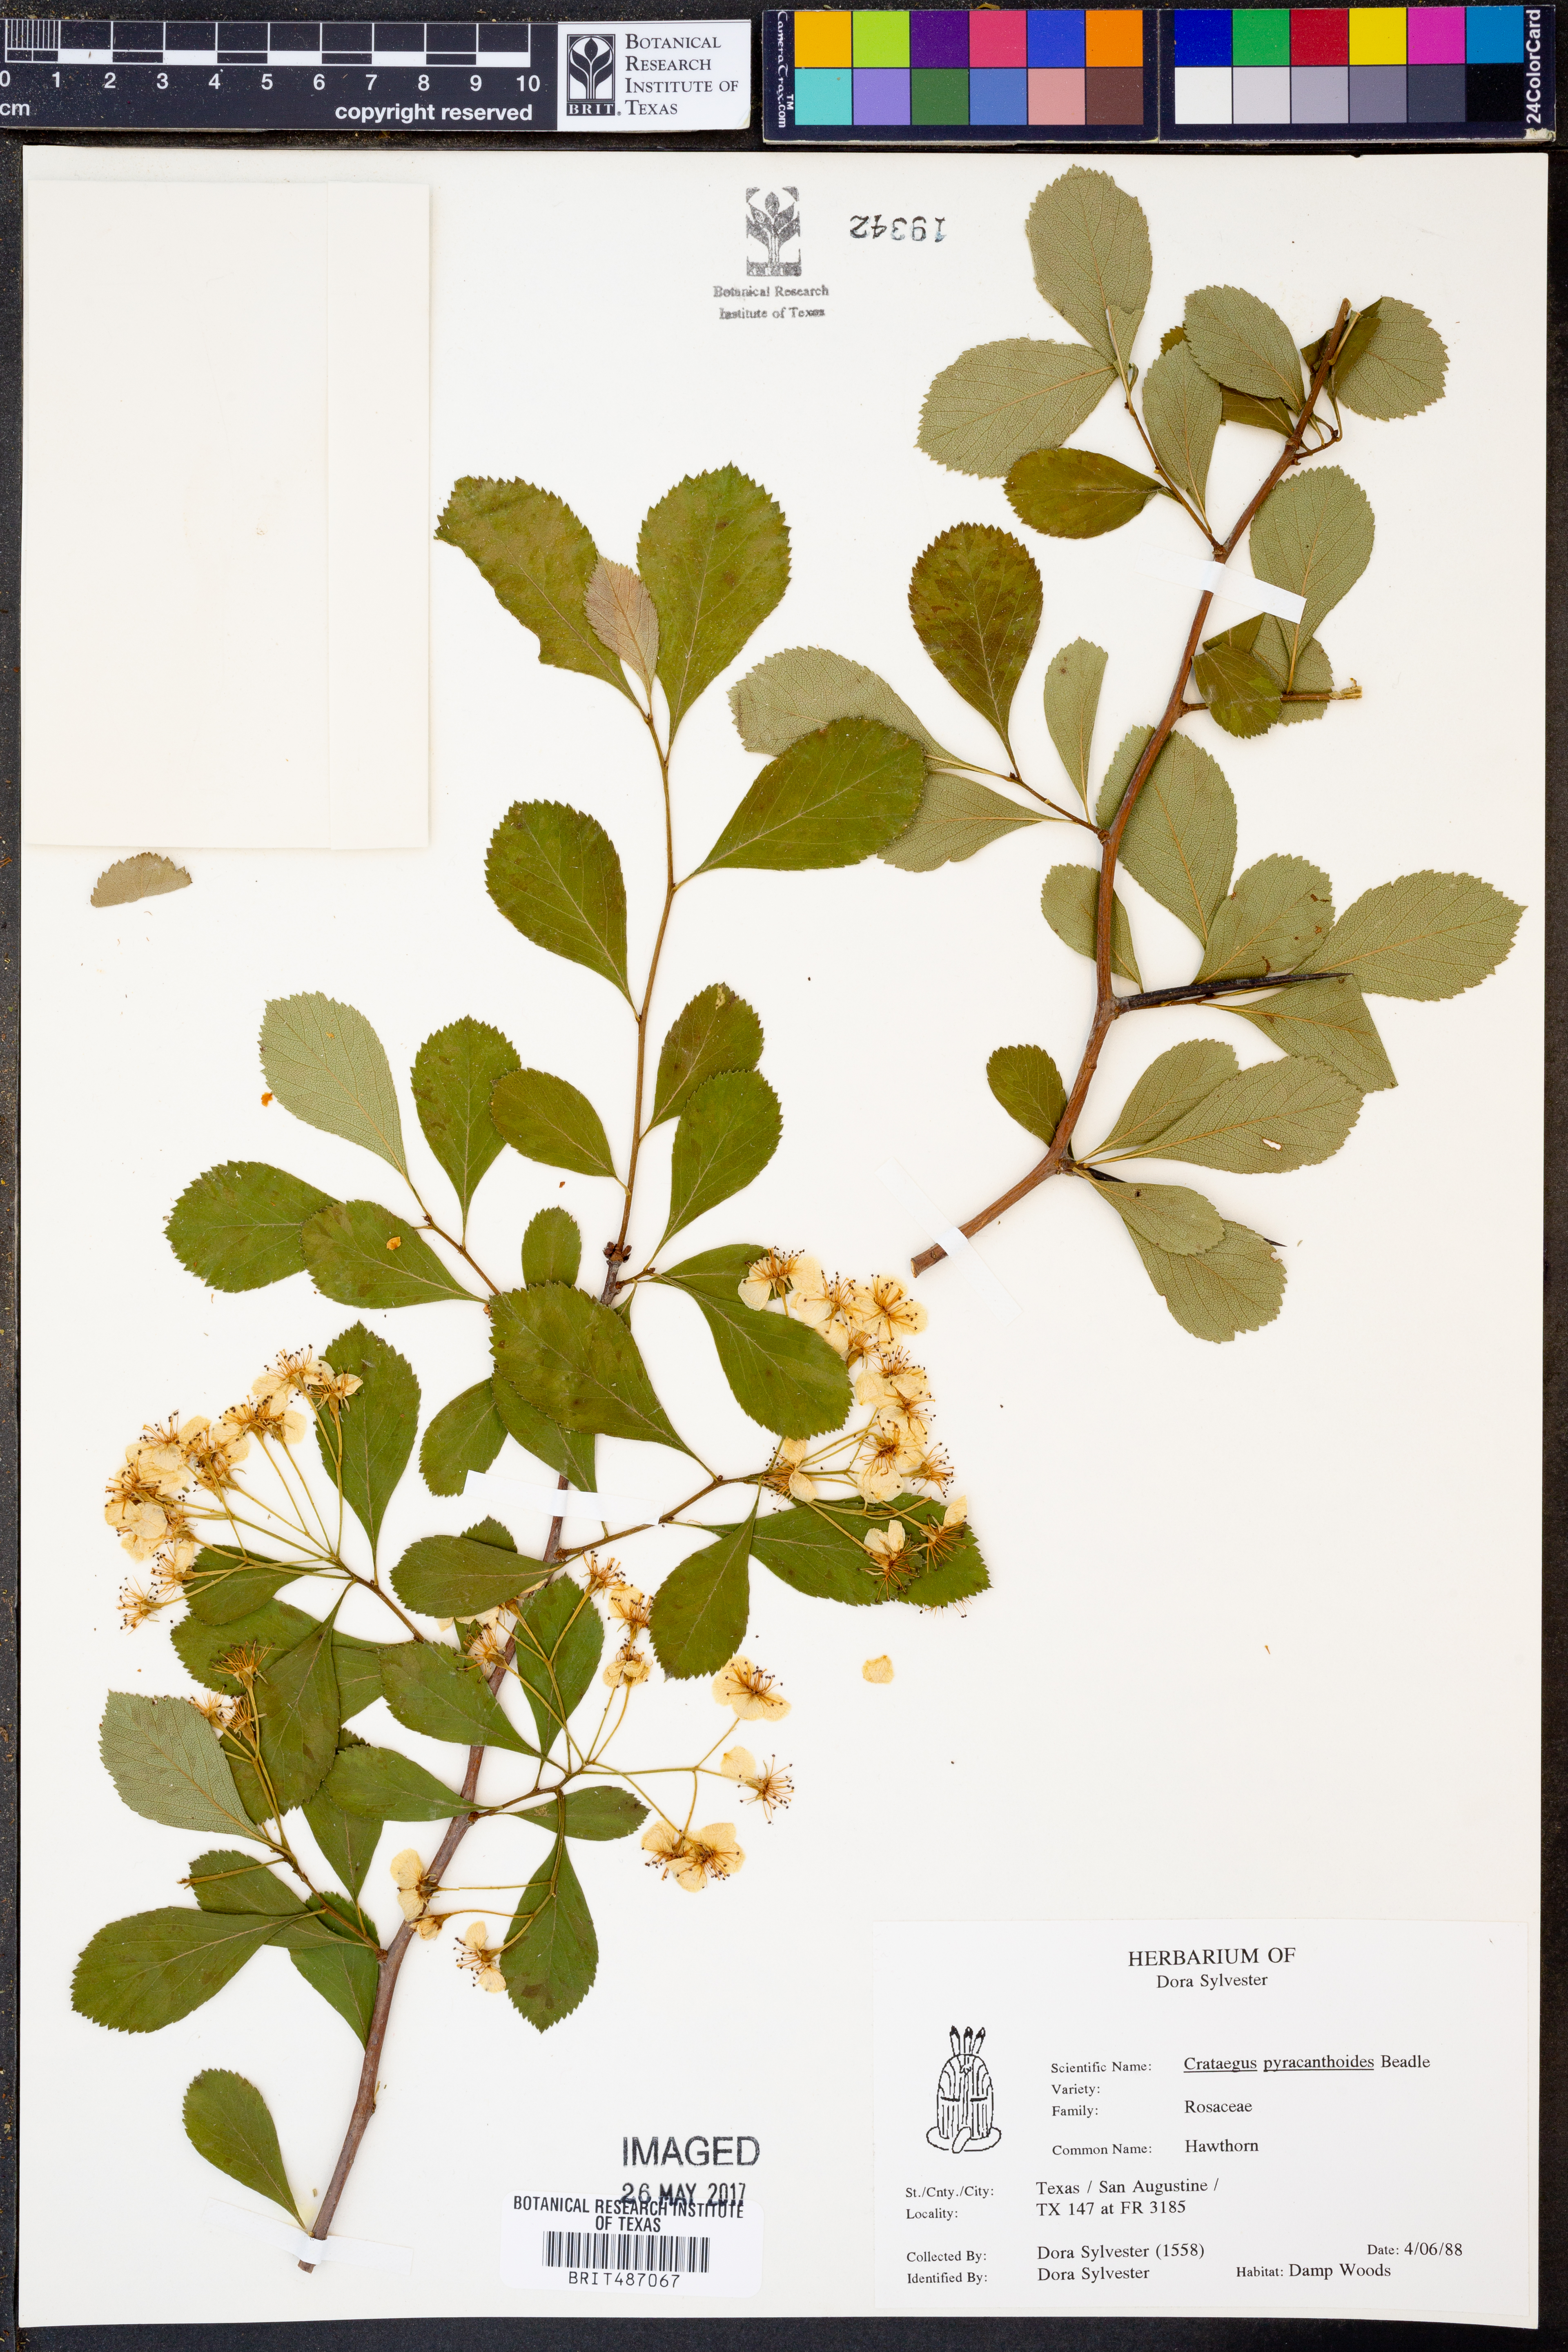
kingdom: Plantae
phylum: Tracheophyta
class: Magnoliopsida
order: Rosales
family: Rosaceae
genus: Crataegus
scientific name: Crataegus crus-galli
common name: Cockspurthorn
